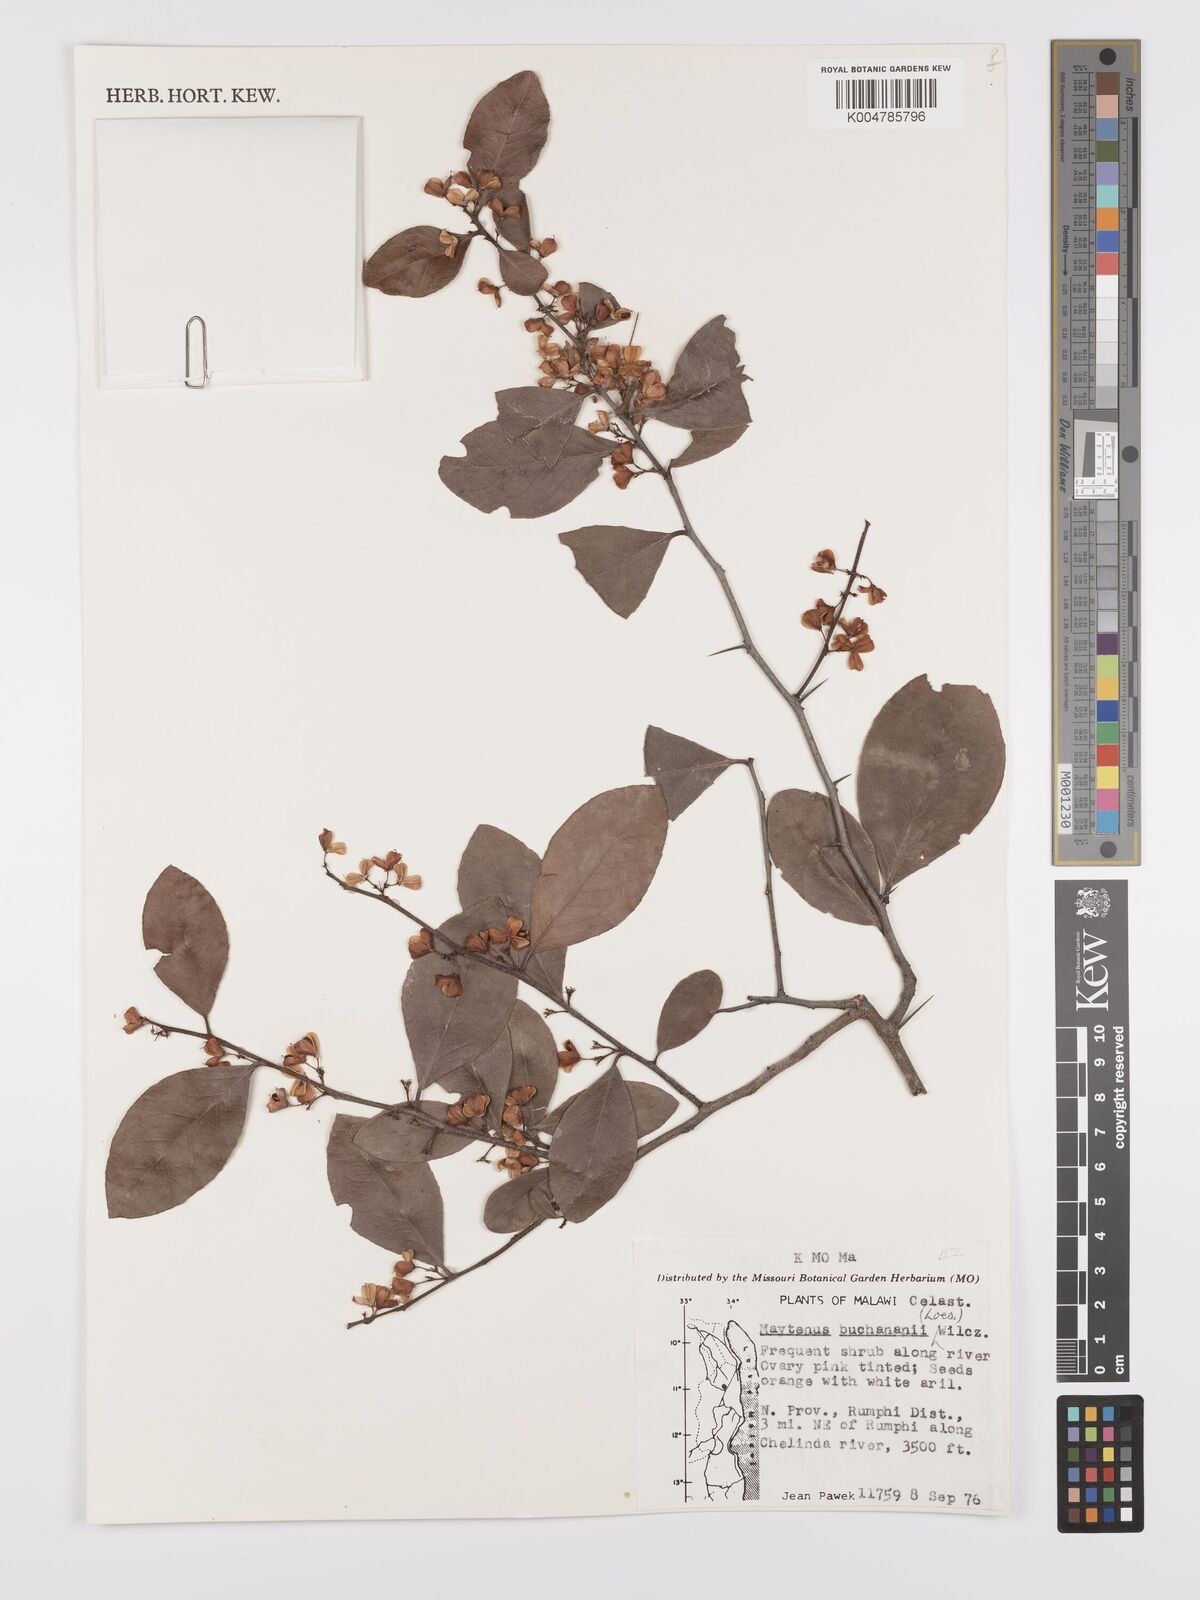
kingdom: Plantae
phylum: Tracheophyta
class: Magnoliopsida
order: Celastrales
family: Celastraceae
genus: Gymnosporia
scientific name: Gymnosporia buchananii
